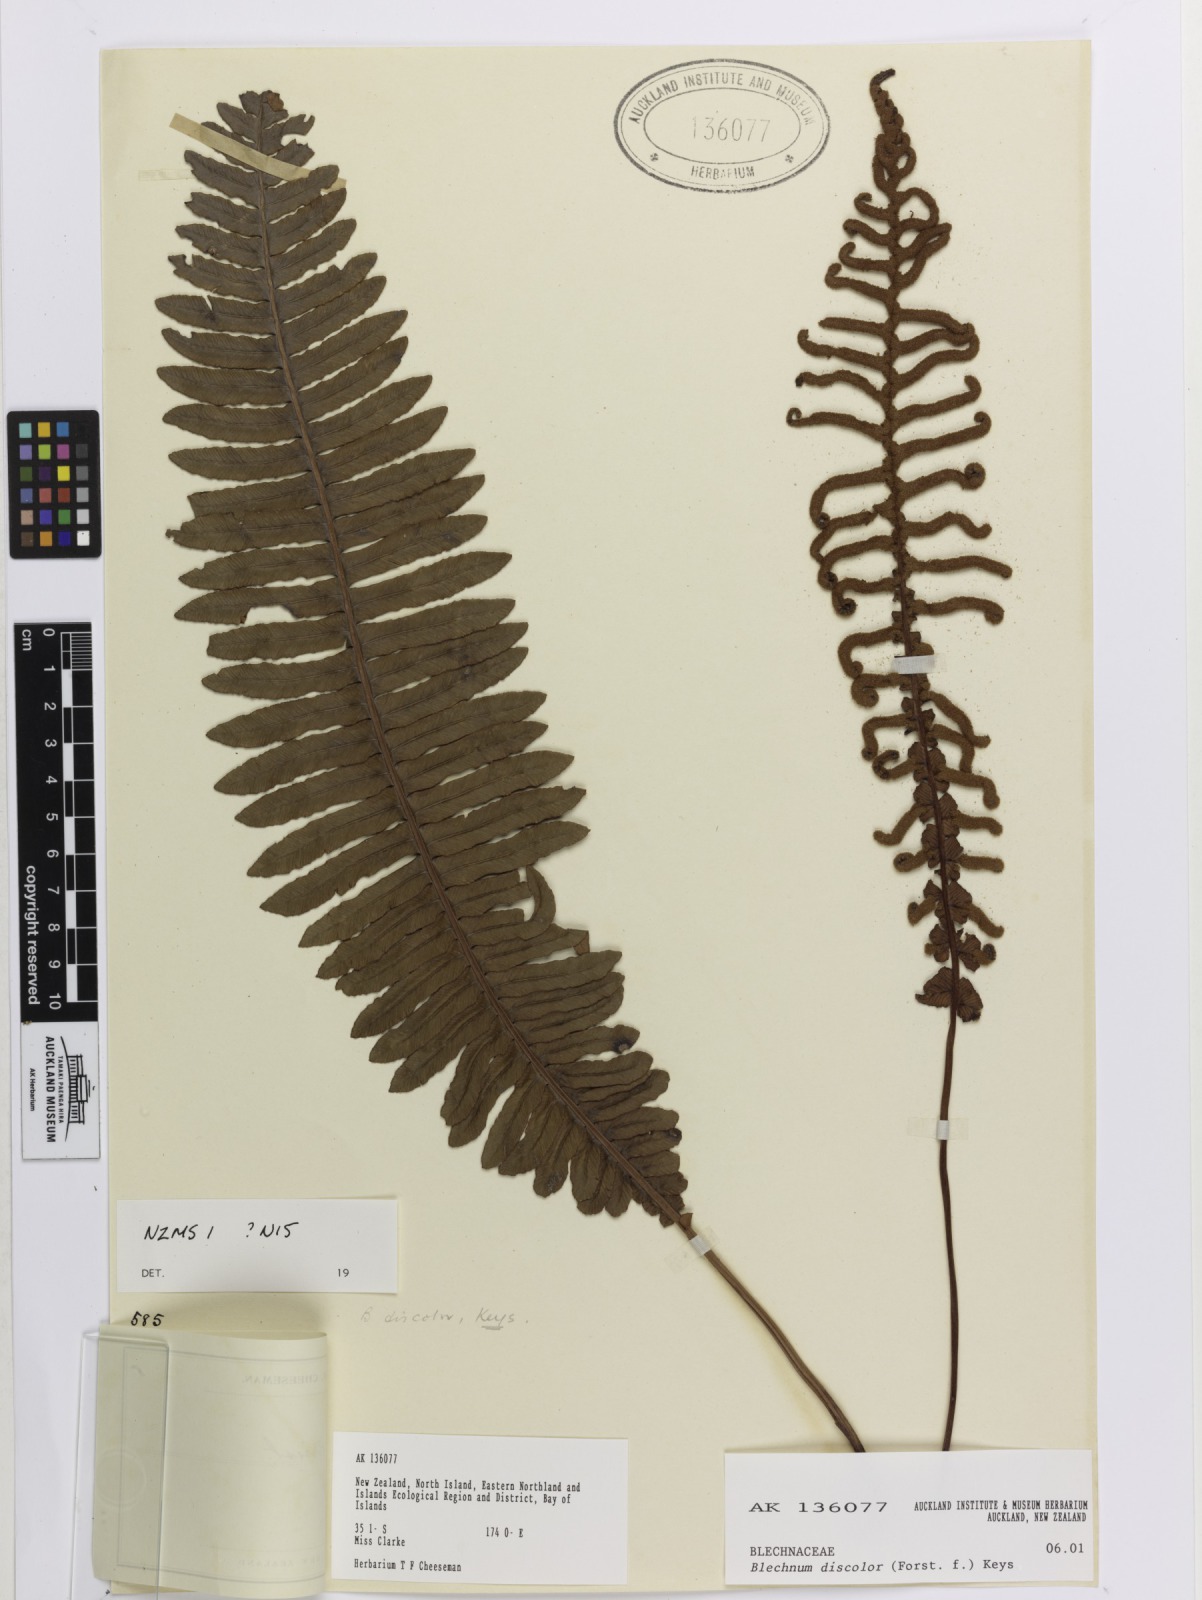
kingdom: Plantae
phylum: Tracheophyta
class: Polypodiopsida
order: Polypodiales
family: Blechnaceae
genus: Lomaria
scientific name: Lomaria discolor
